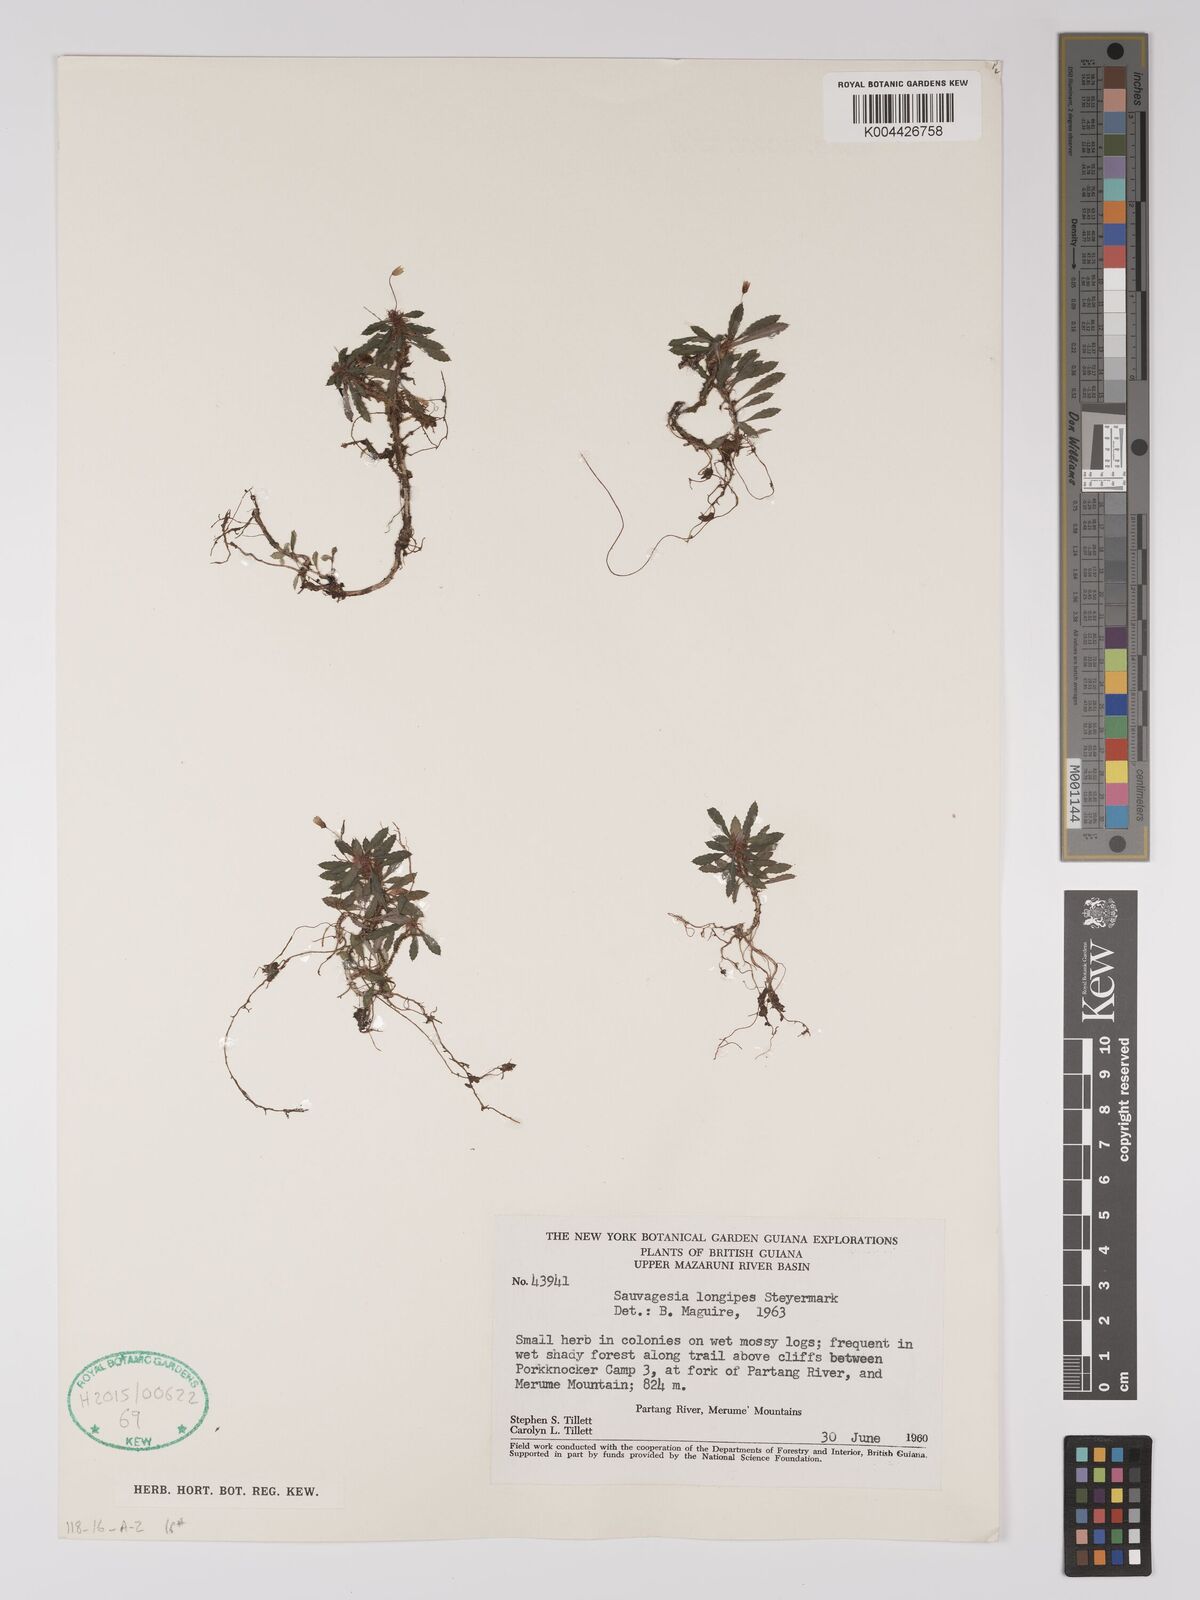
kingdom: Plantae
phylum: Tracheophyta
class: Magnoliopsida
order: Malpighiales
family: Ochnaceae
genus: Sauvagesia
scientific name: Sauvagesia longipes
